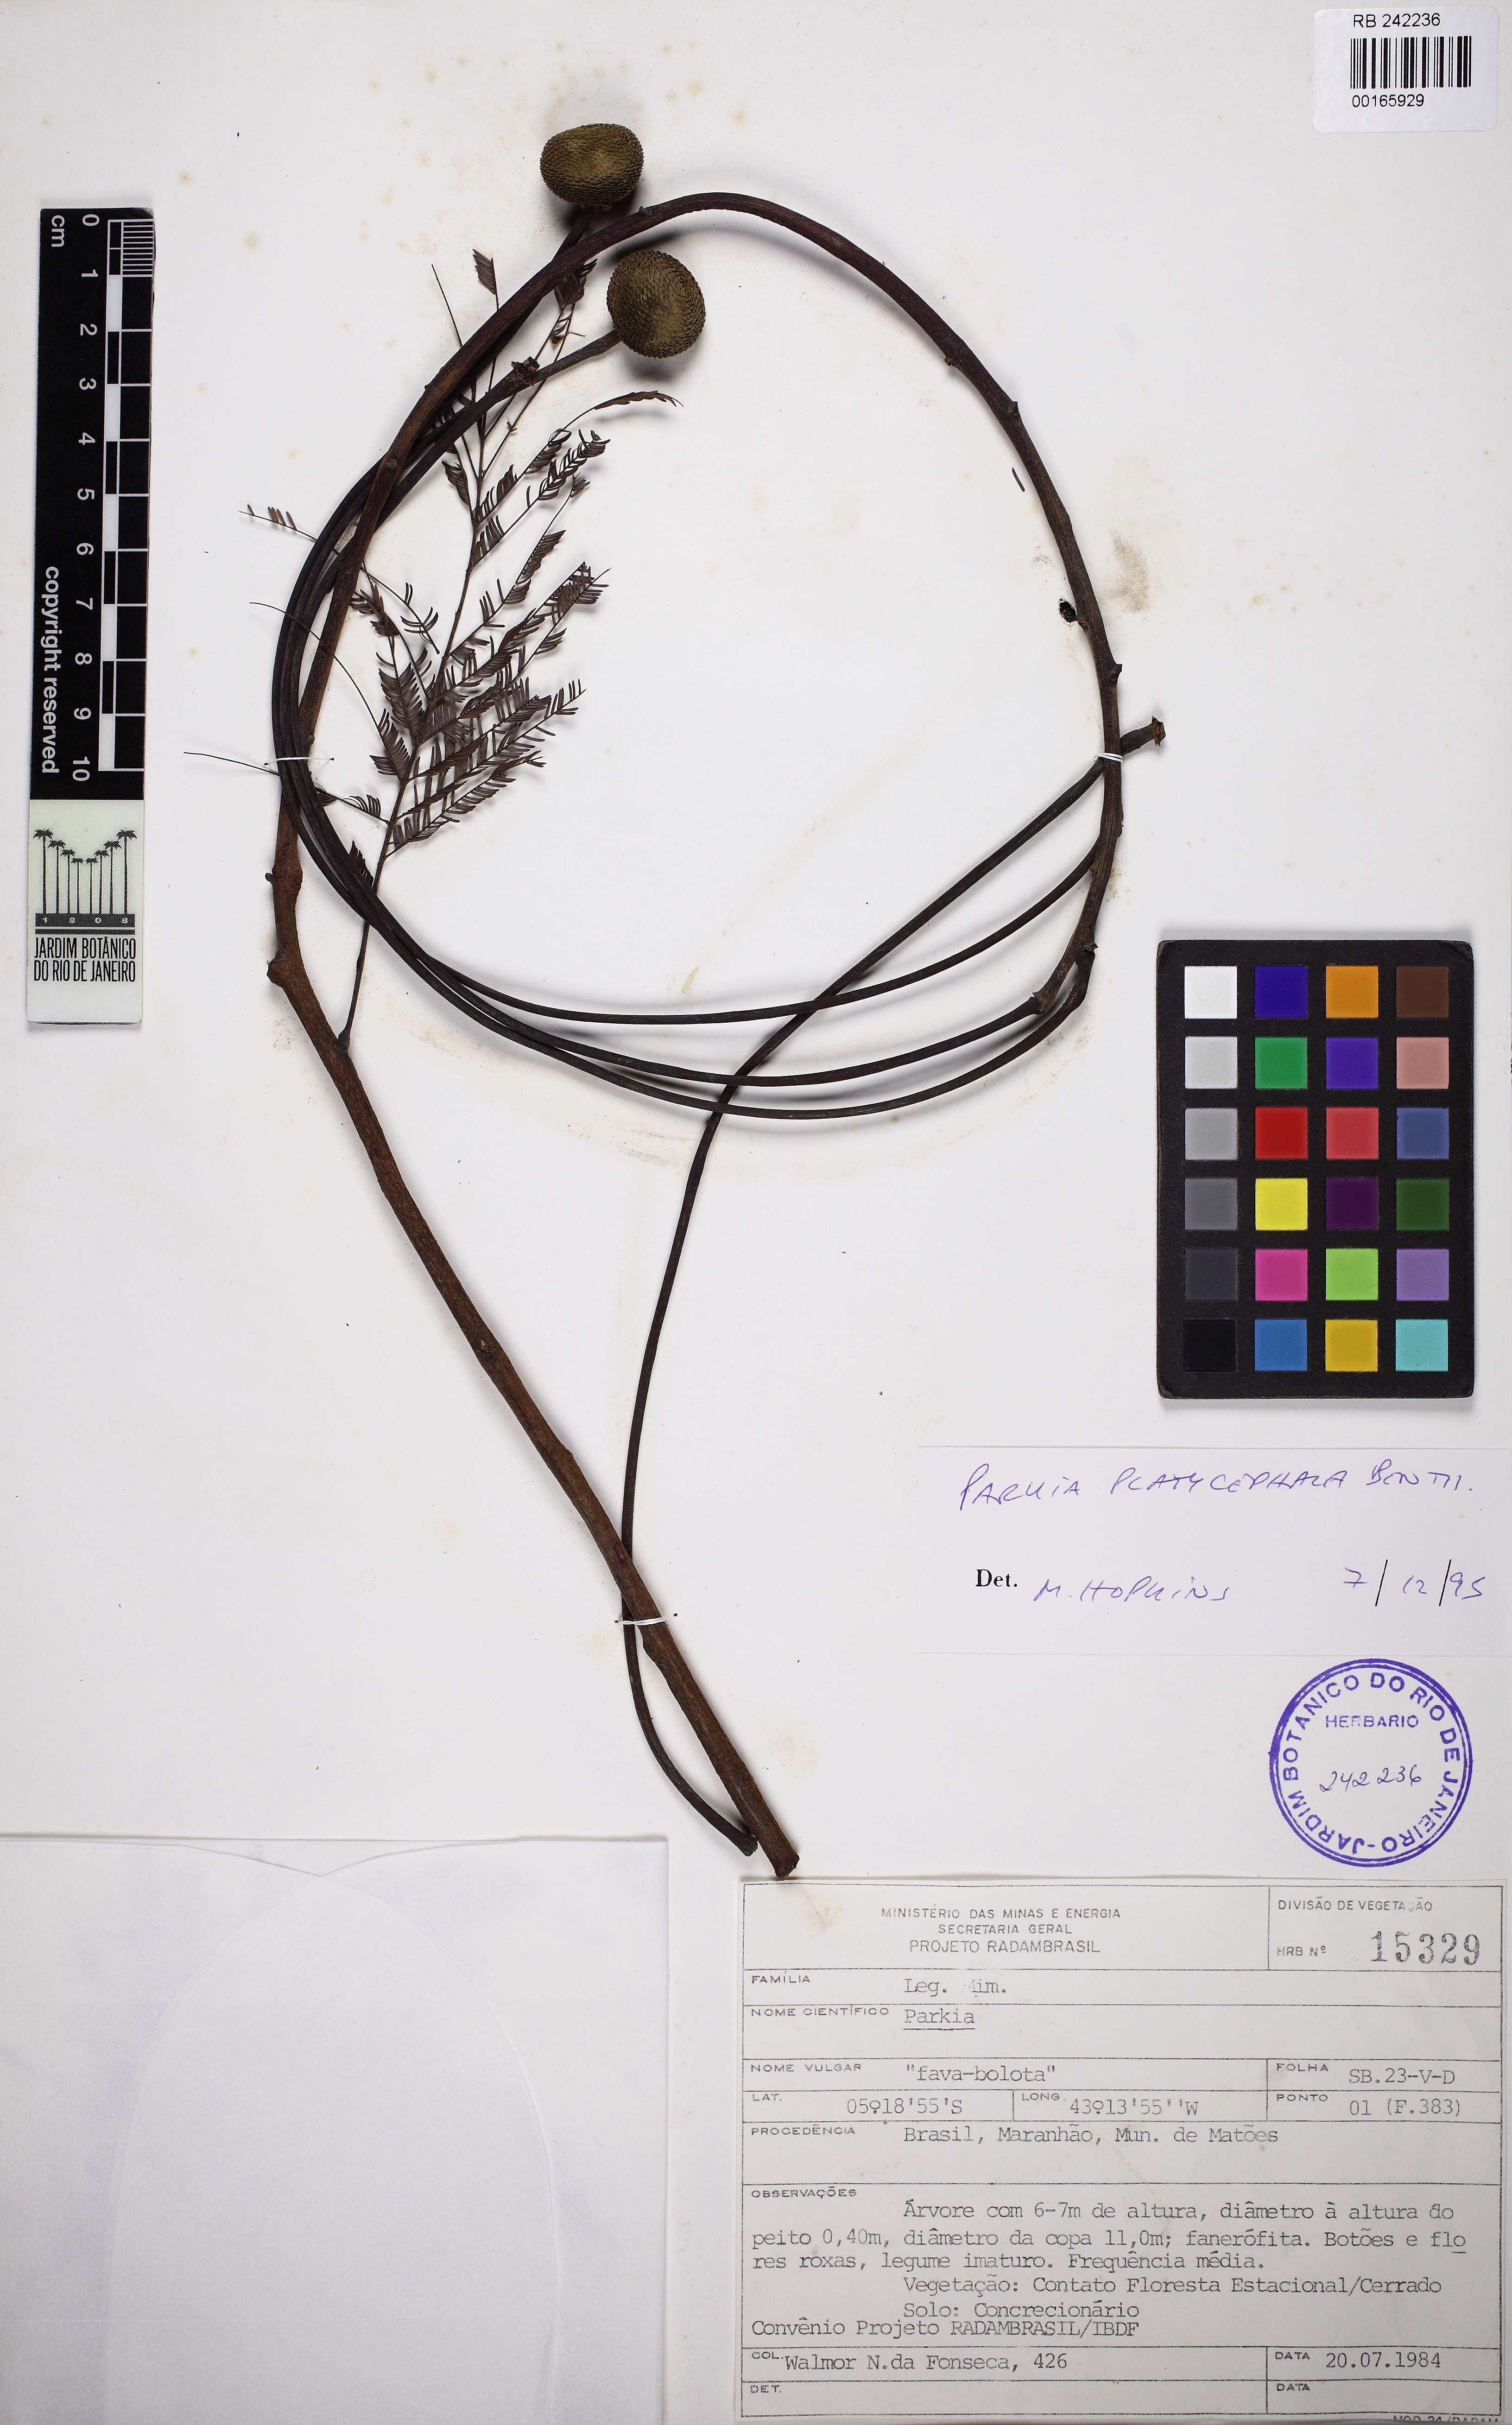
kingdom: Plantae
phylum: Tracheophyta
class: Magnoliopsida
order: Fabales
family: Fabaceae
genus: Parkia
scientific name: Parkia platycephala
